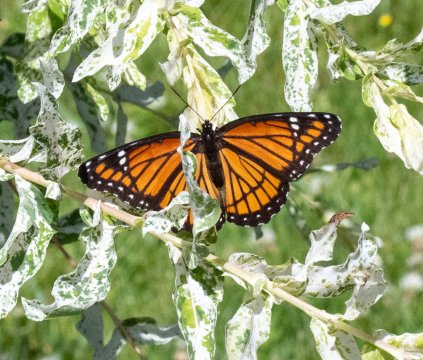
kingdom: Animalia
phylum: Arthropoda
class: Insecta
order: Lepidoptera
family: Nymphalidae
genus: Limenitis
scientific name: Limenitis archippus
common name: Viceroy
